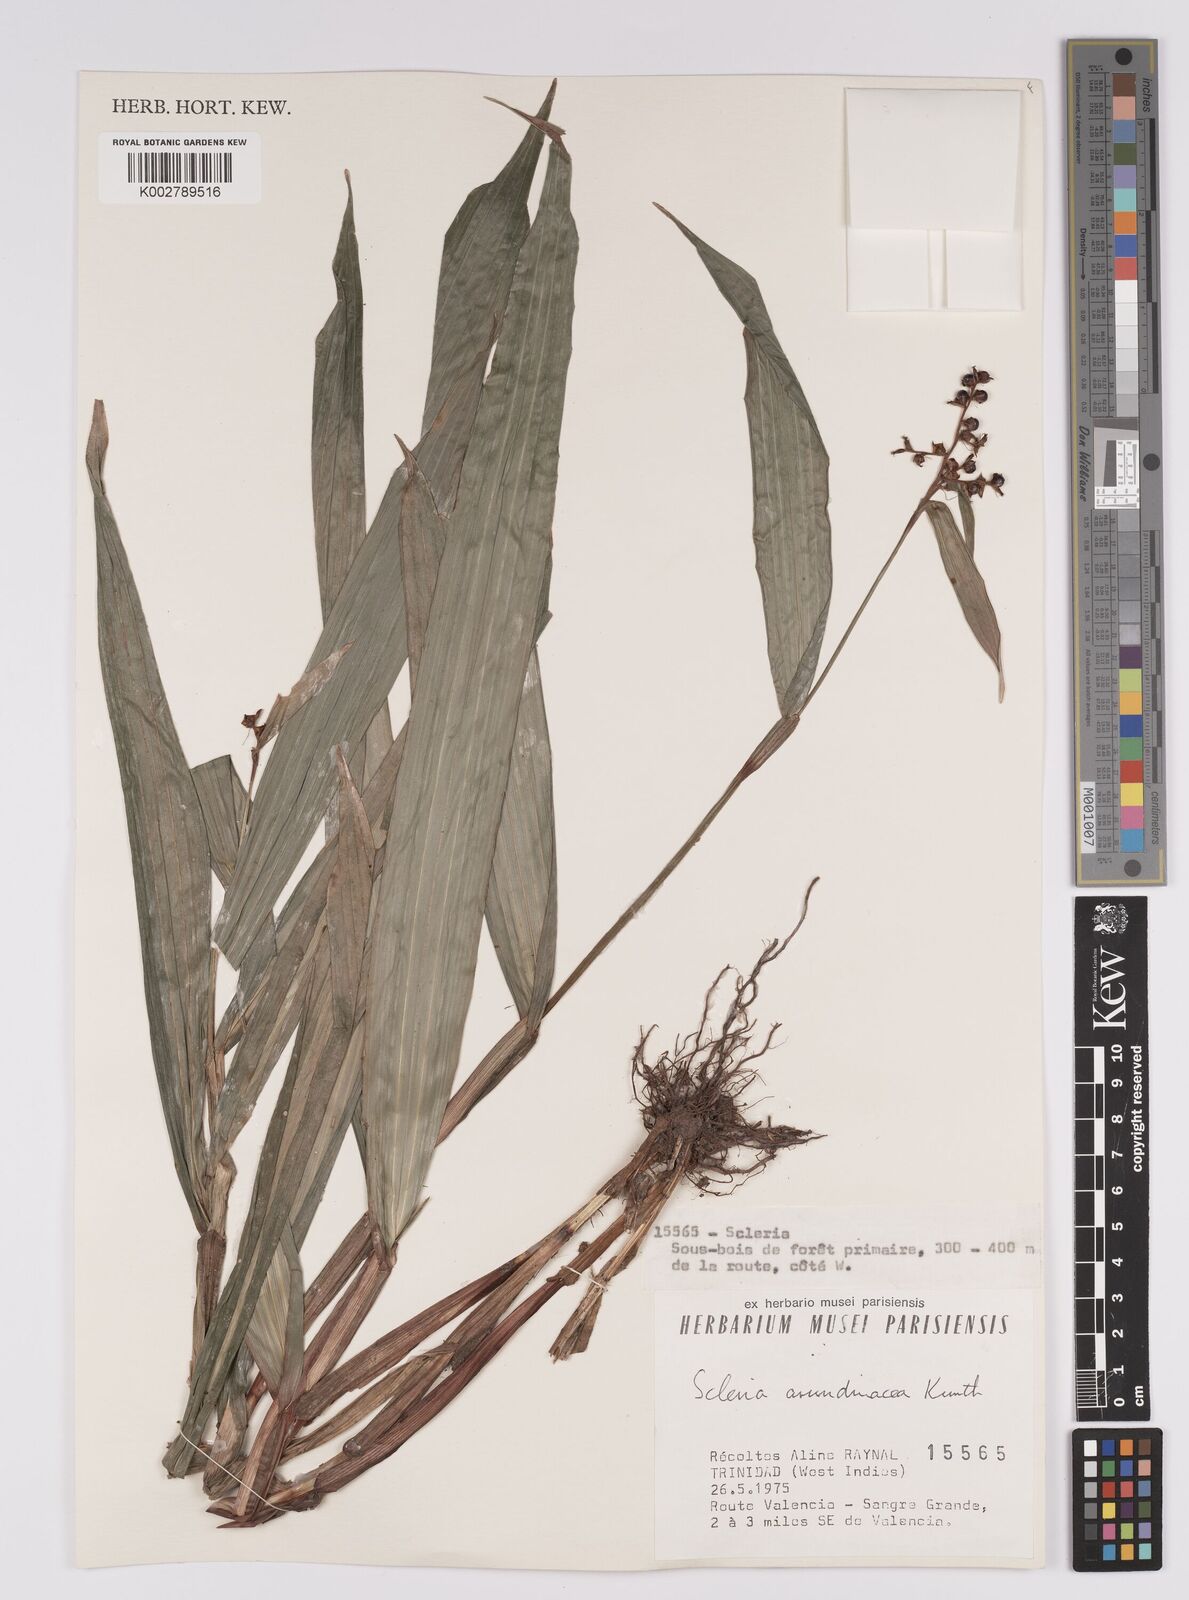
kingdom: Plantae
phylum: Tracheophyta
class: Liliopsida
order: Poales
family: Cyperaceae
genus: Scleria
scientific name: Scleria latifolia
